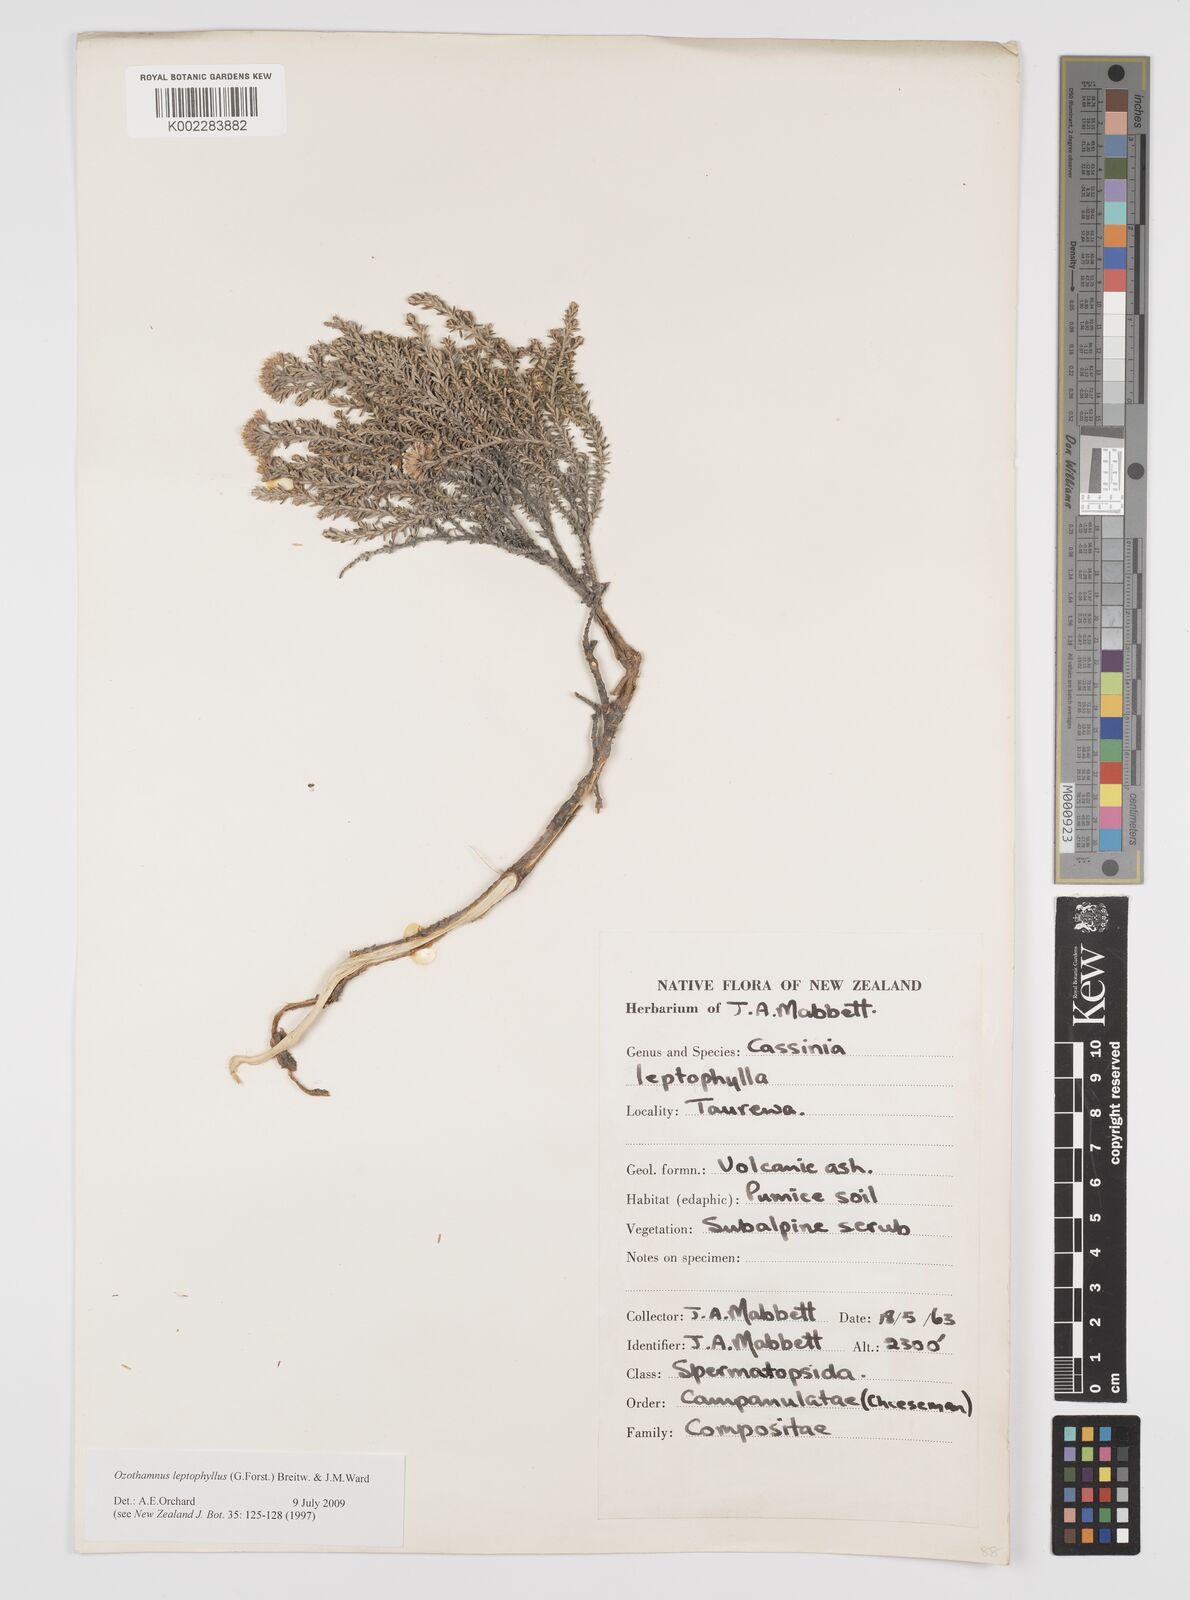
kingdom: Plantae
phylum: Tracheophyta
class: Magnoliopsida
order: Asterales
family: Asteraceae
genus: Ozothamnus
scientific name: Ozothamnus leptophyllus
